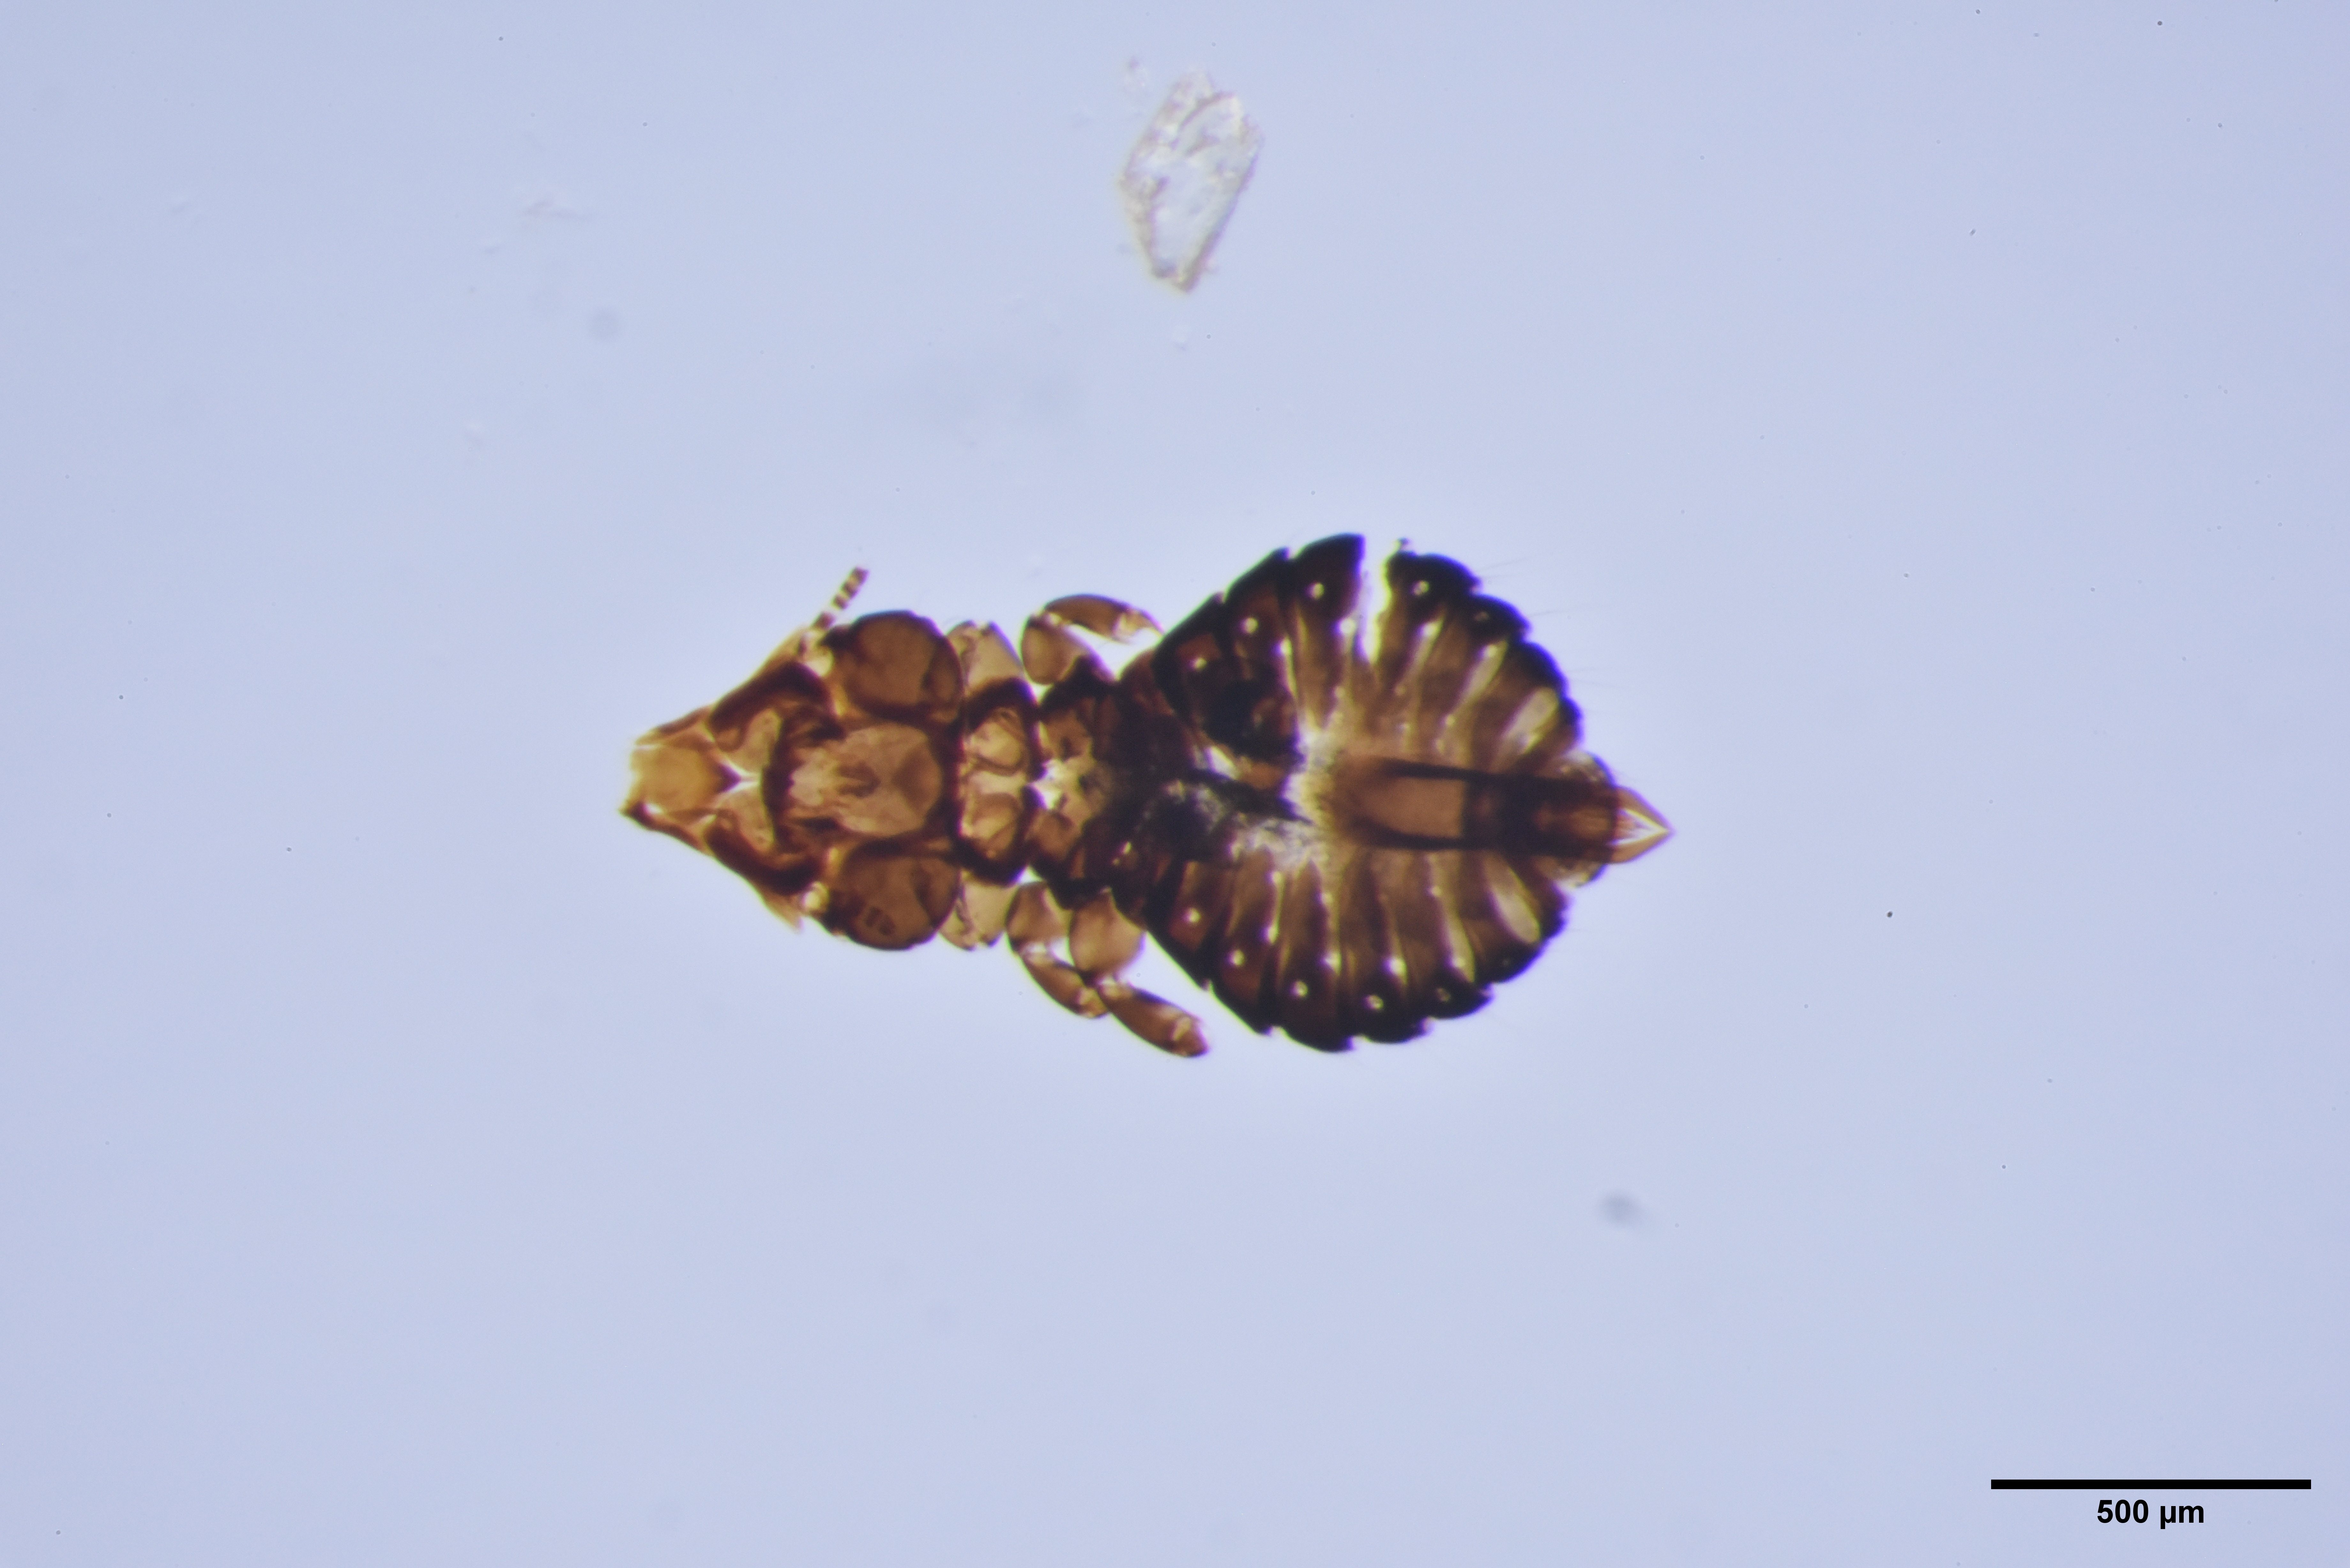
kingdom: Animalia
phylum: Arthropoda
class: Insecta
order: Psocodea
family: Philopteridae
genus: Saemundssonia
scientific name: Saemundssonia occidentalis
